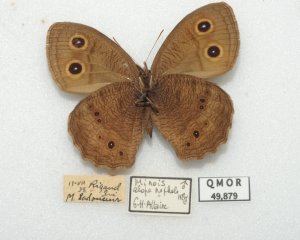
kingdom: Animalia
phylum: Arthropoda
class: Insecta
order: Lepidoptera
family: Nymphalidae
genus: Cercyonis
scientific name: Cercyonis pegala
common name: Common Wood-Nymph
